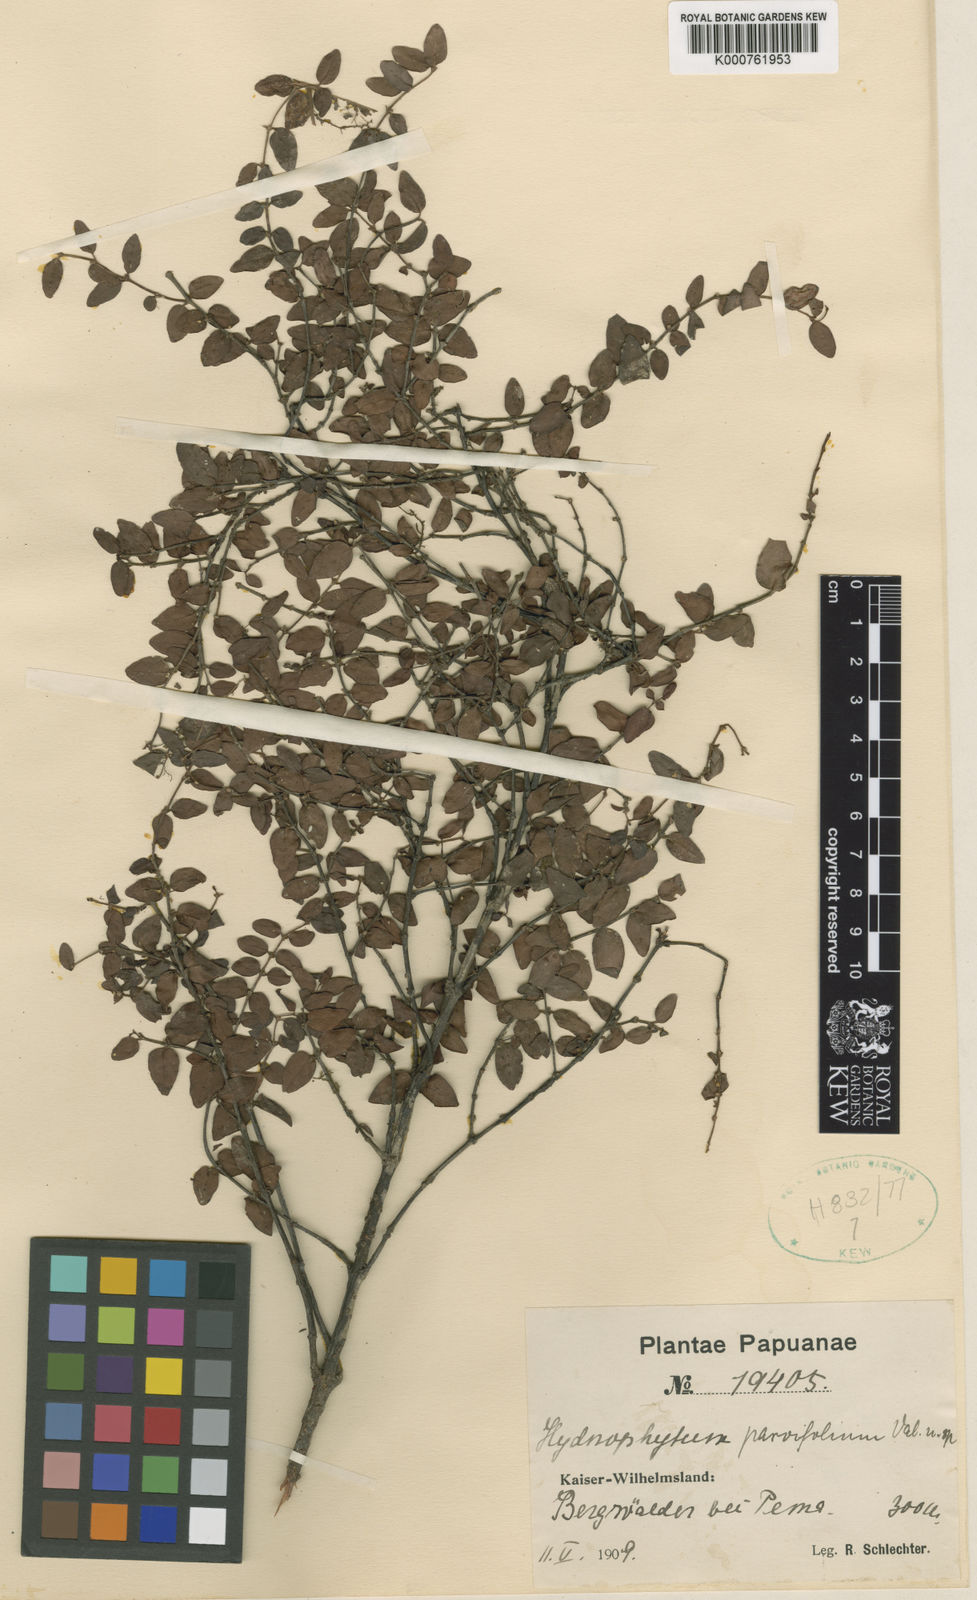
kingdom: Plantae
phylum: Tracheophyta
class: Magnoliopsida
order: Gentianales
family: Rubiaceae
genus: Hydnophytum
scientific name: Hydnophytum hellwigii
